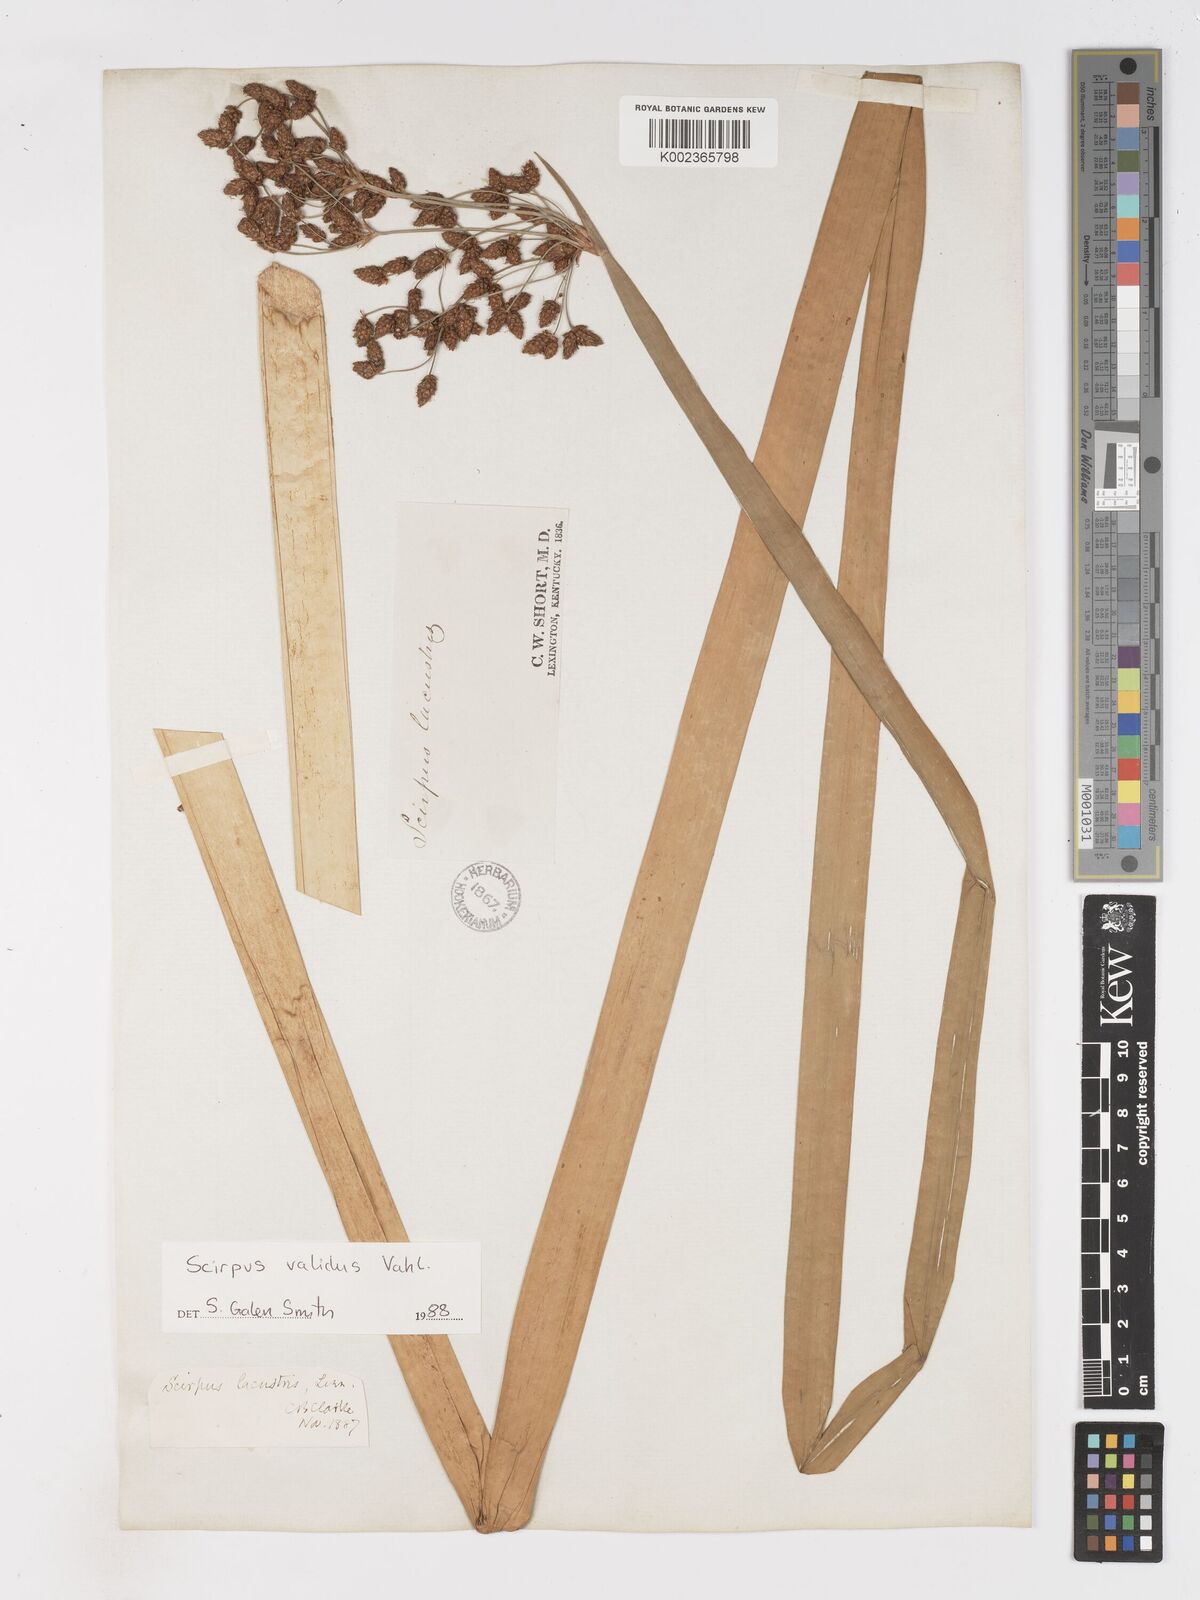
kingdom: Plantae
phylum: Tracheophyta
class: Liliopsida
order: Poales
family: Cyperaceae
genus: Schoenoplectus
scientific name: Schoenoplectus lacustris
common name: Common club-rush
